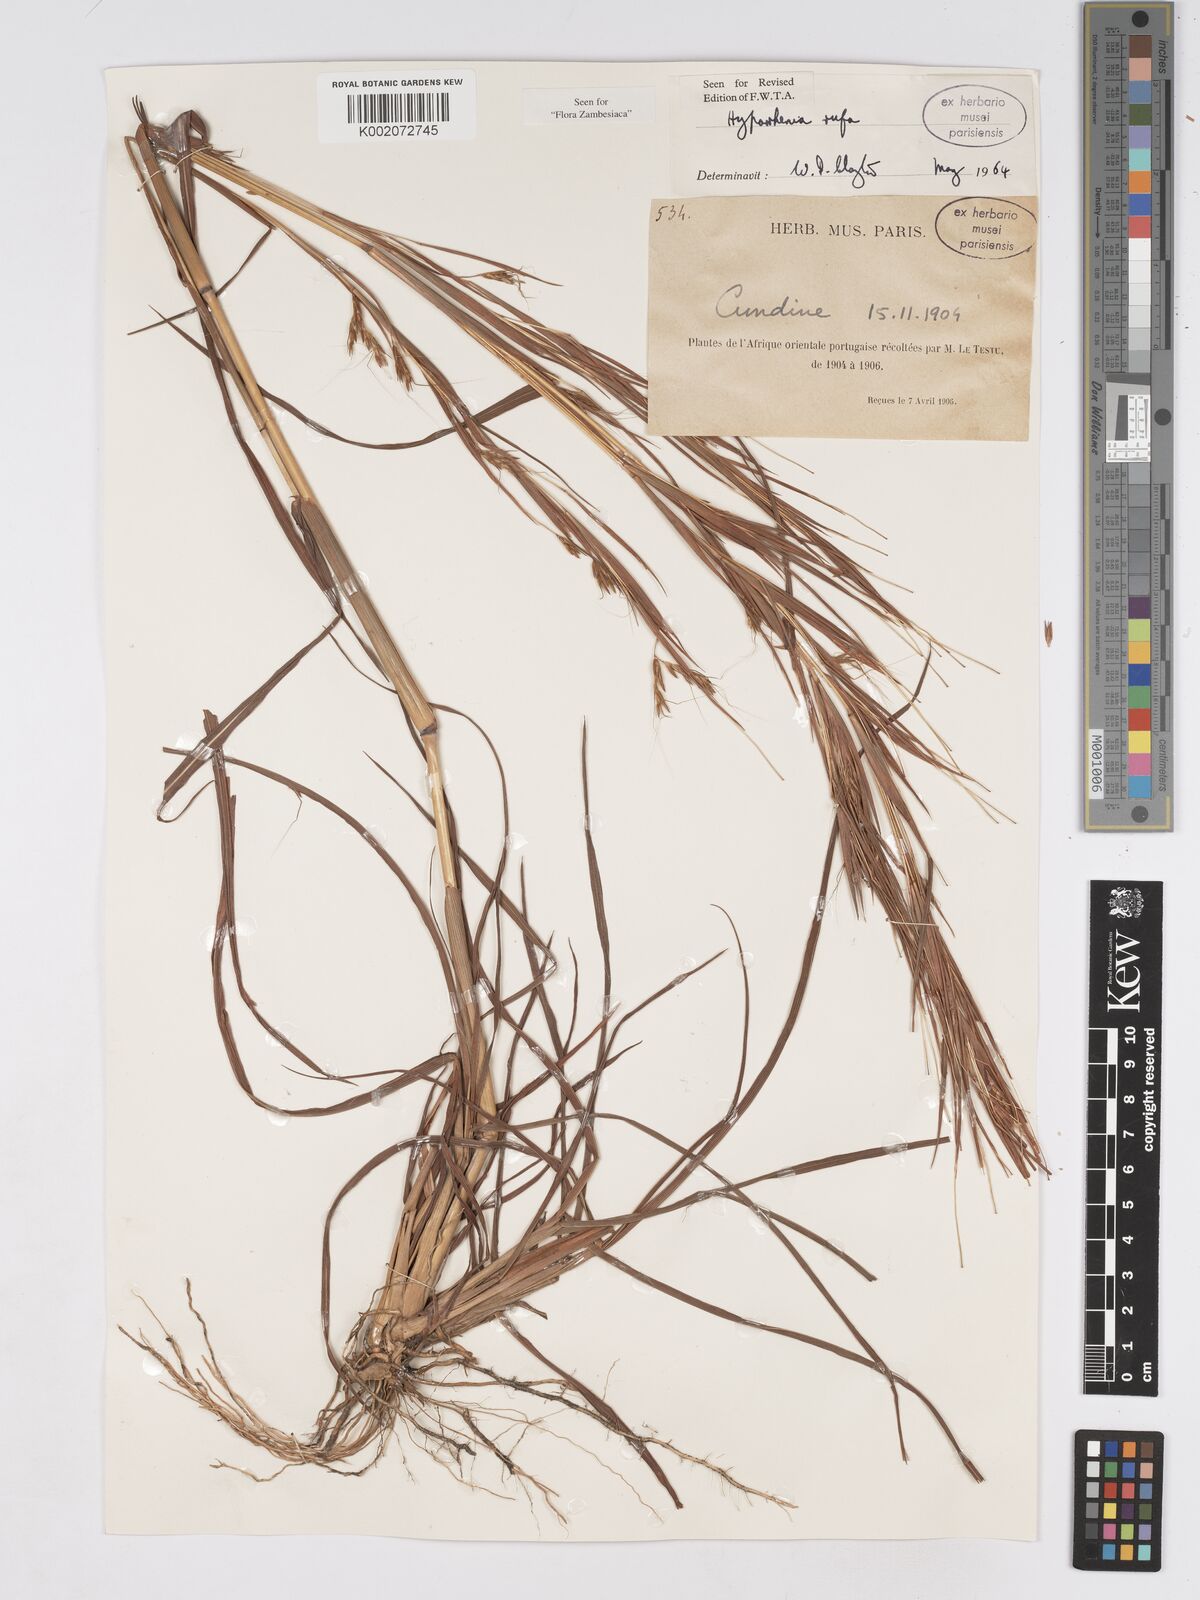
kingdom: Plantae
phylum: Tracheophyta
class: Liliopsida
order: Poales
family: Poaceae
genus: Hyparrhenia
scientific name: Hyparrhenia rufa
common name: Jaraguagrass
